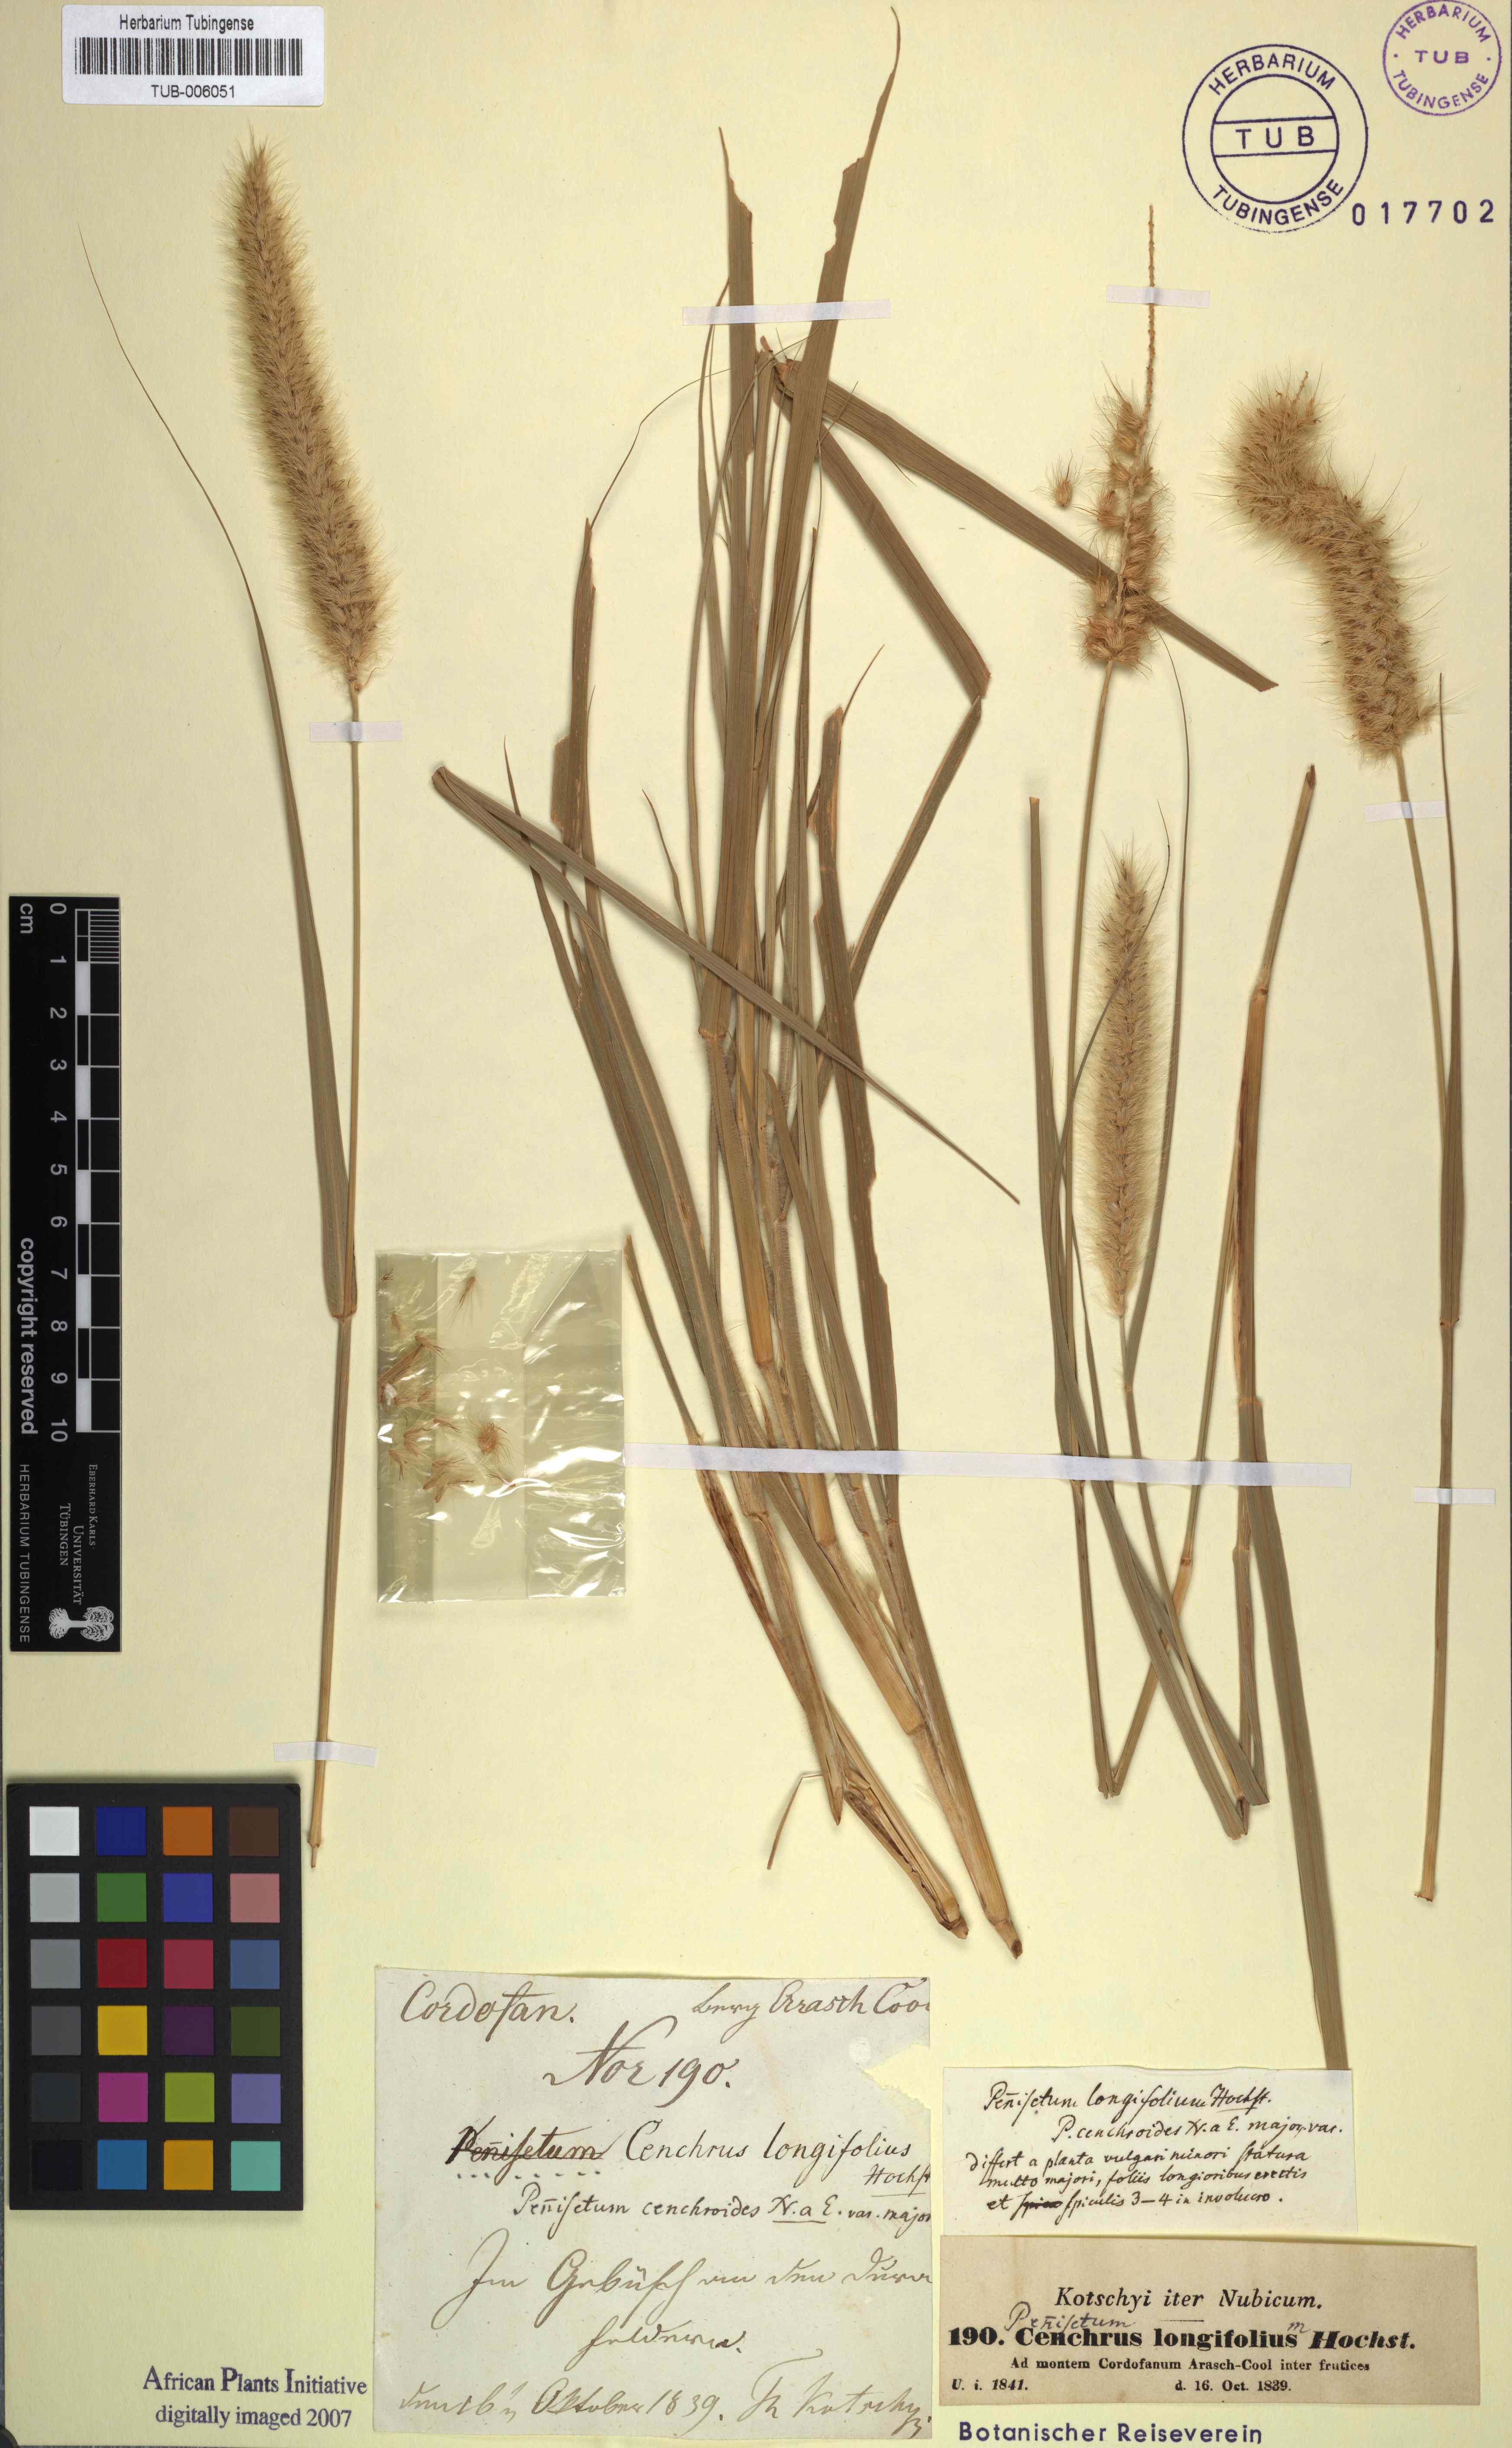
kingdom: Plantae
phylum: Tracheophyta
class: Liliopsida
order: Poales
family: Poaceae
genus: Cenchrus
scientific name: Cenchrus ciliaris
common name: Buffelgrass
